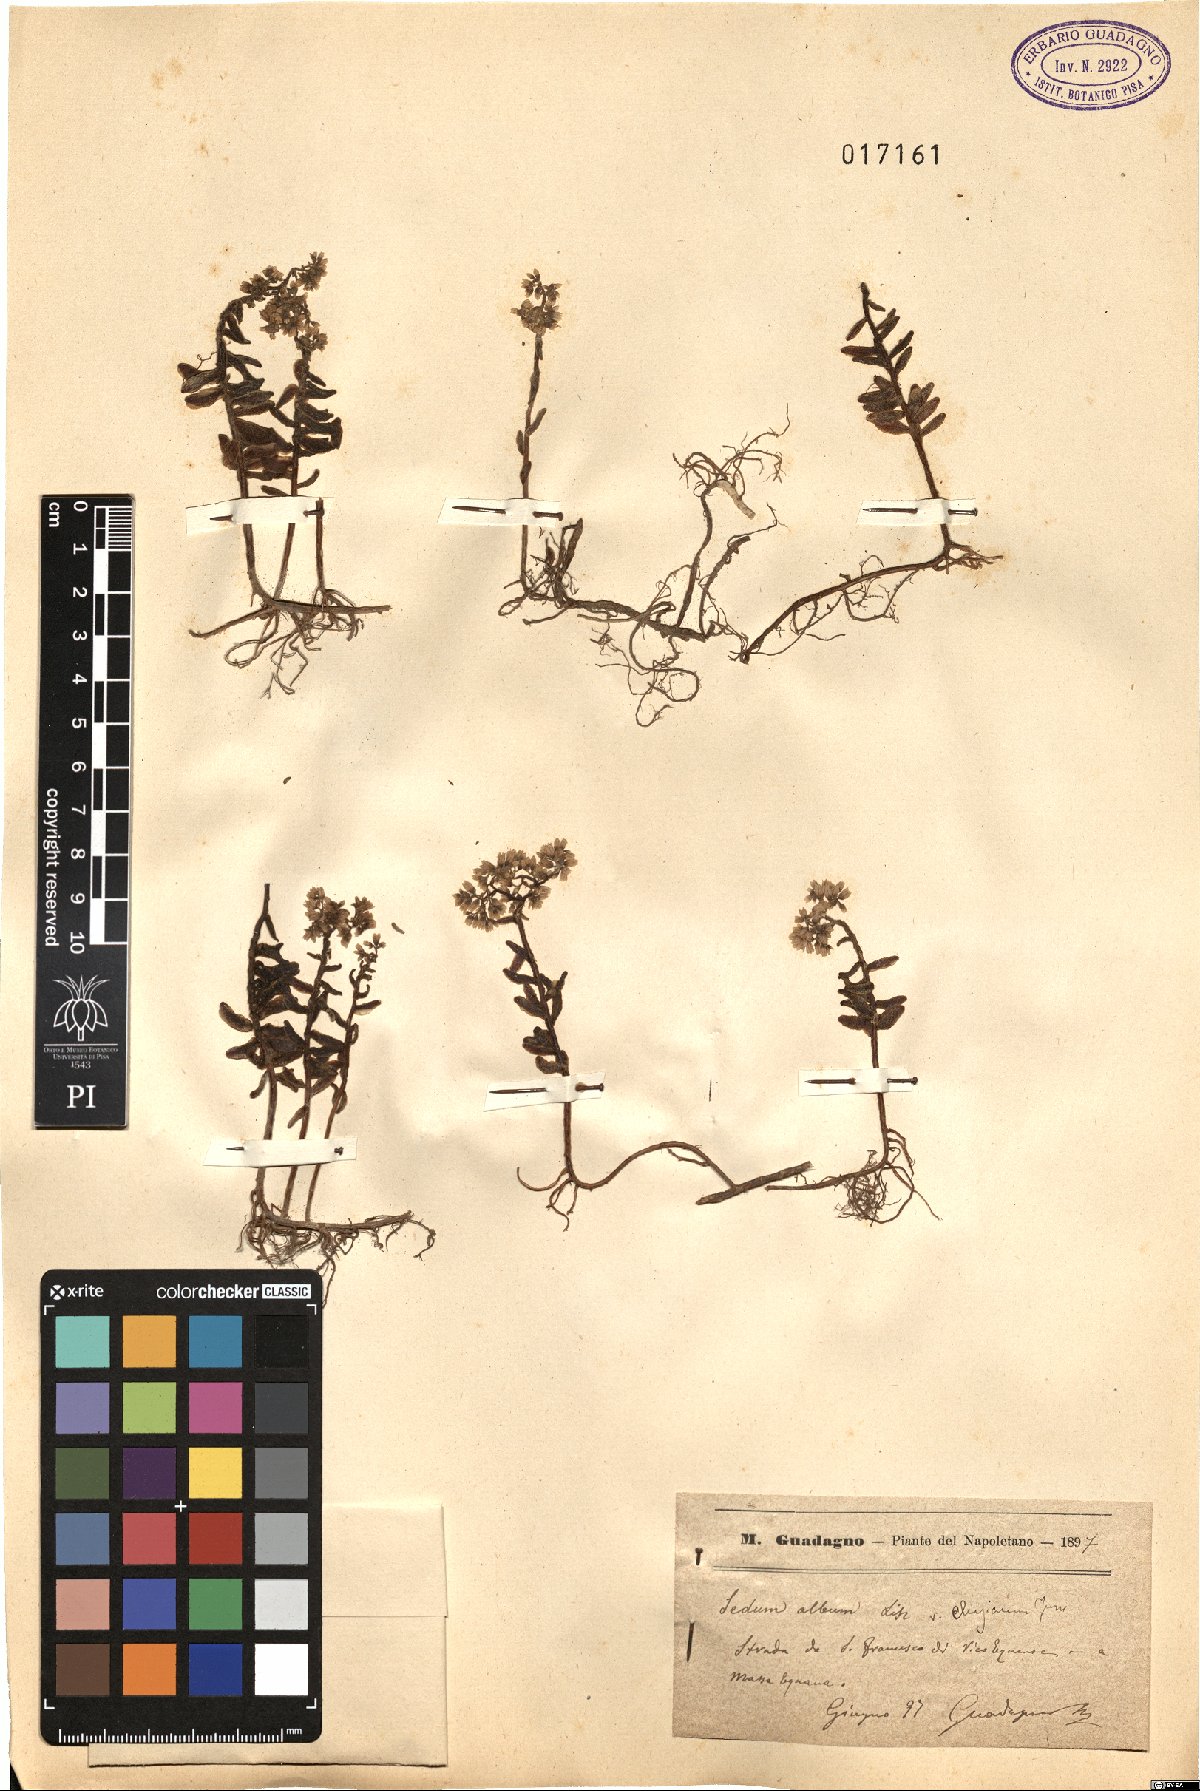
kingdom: Plantae
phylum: Tracheophyta
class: Magnoliopsida
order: Saxifragales
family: Crassulaceae
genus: Sedum
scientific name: Sedum gypsicola
